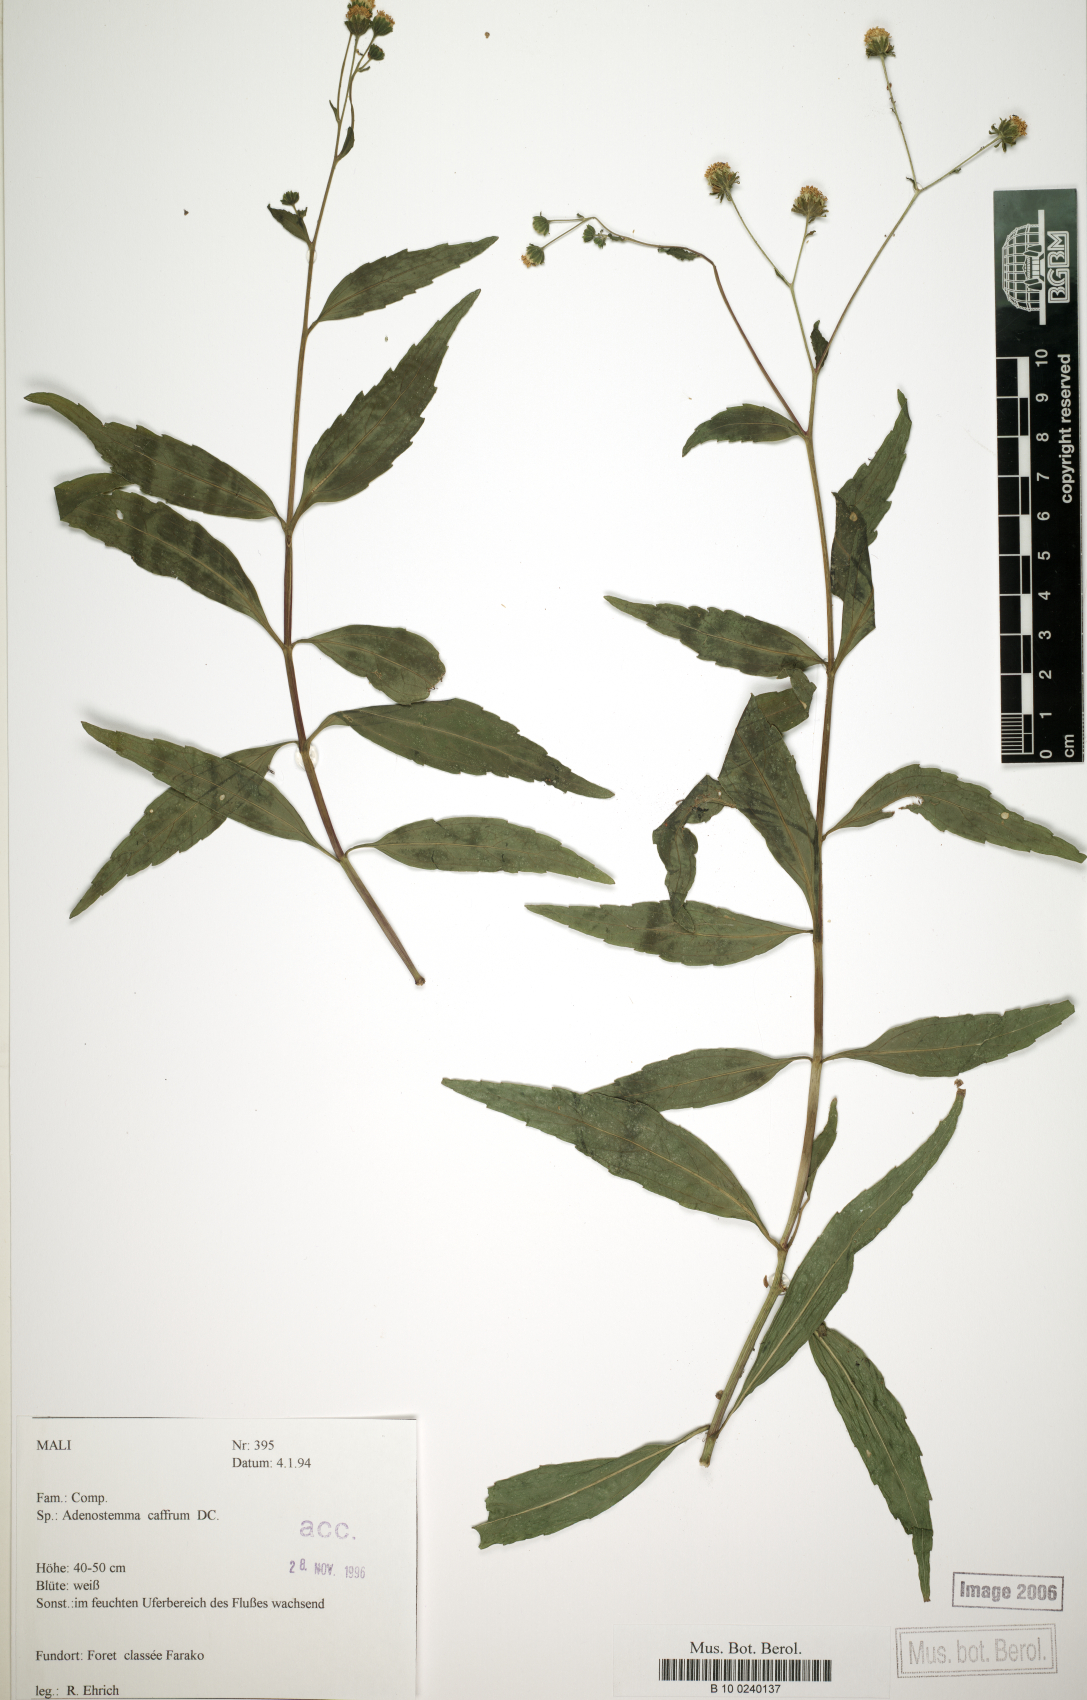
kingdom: Plantae
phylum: Tracheophyta
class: Magnoliopsida
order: Asterales
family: Asteraceae
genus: Adenostemma
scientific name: Adenostemma caffrum
